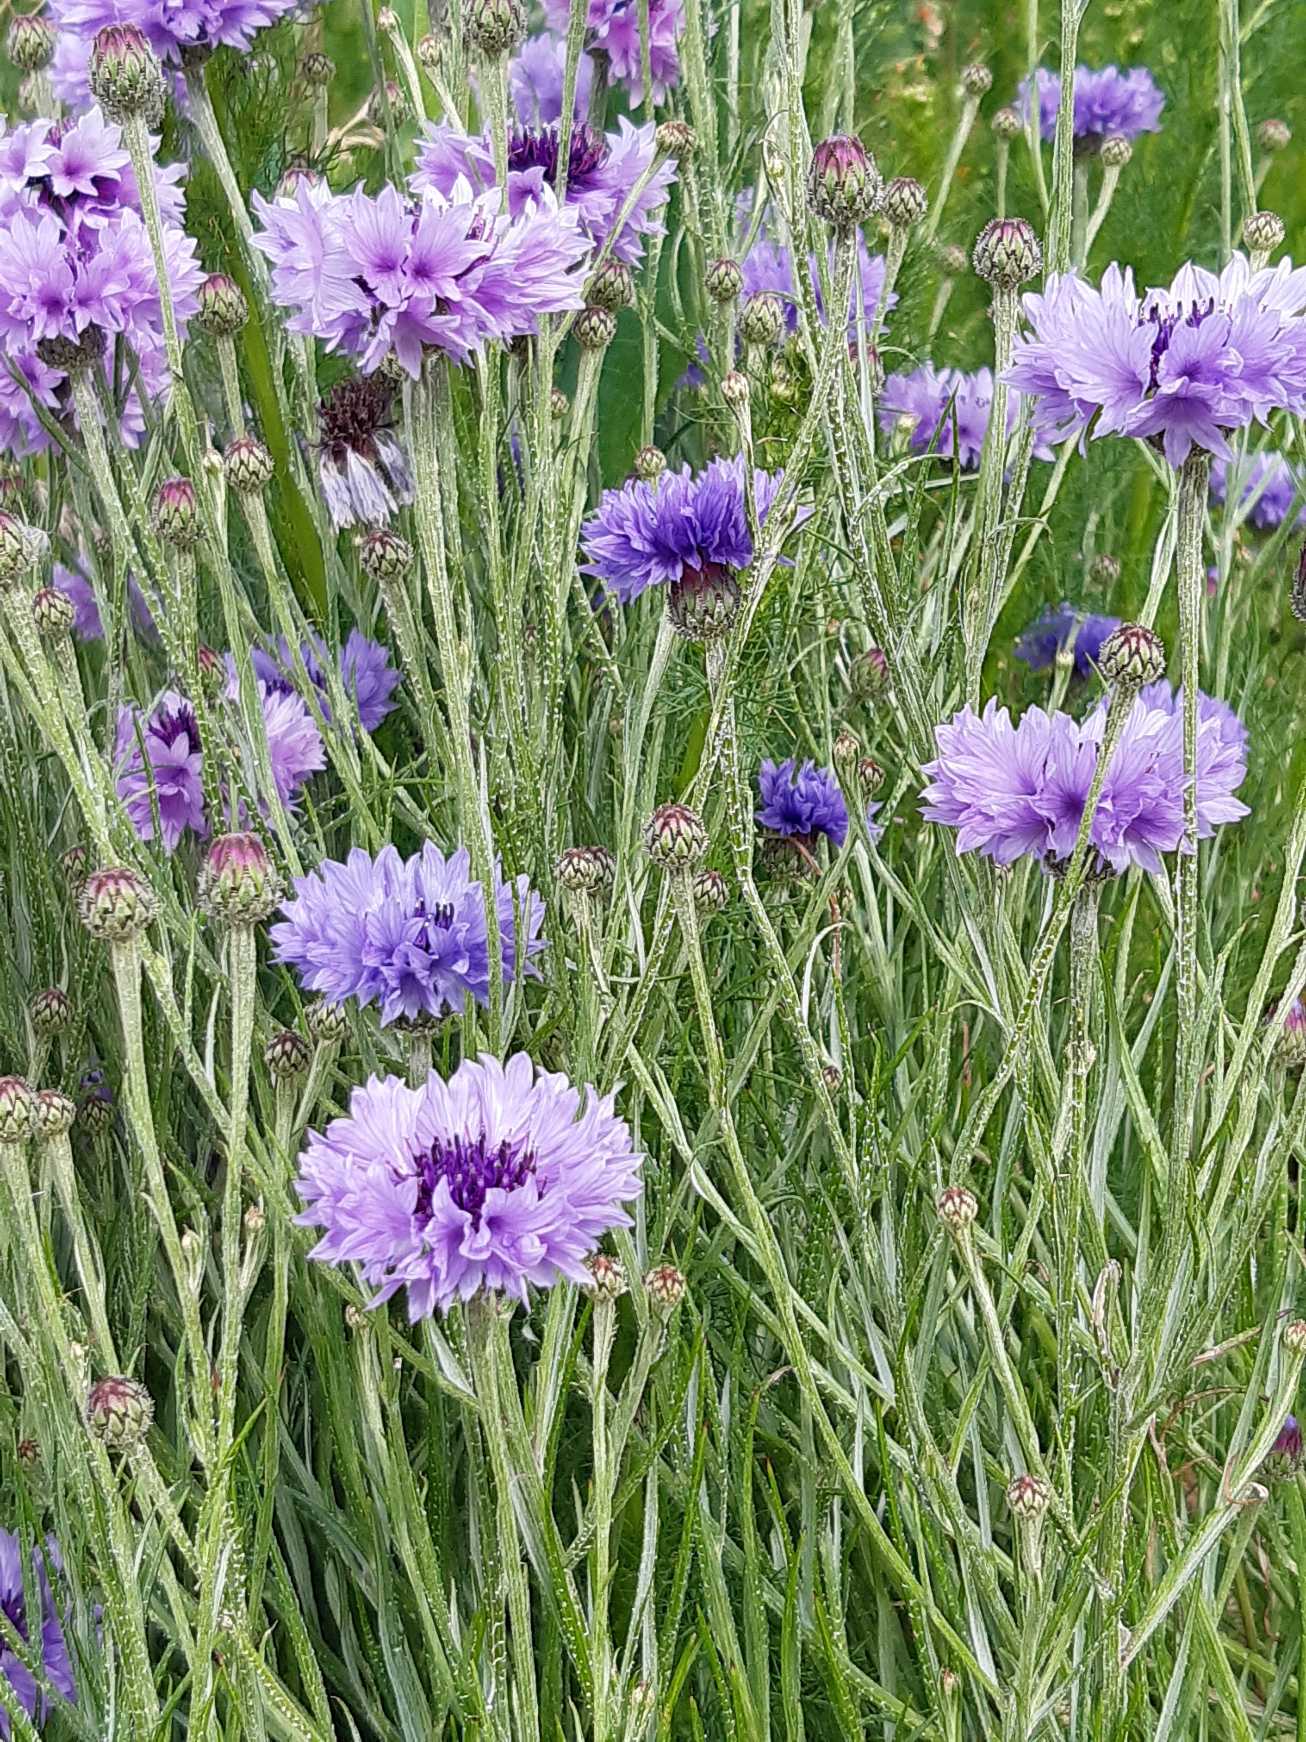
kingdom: Plantae
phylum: Tracheophyta
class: Magnoliopsida
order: Asterales
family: Asteraceae
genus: Centaurea
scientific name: Centaurea cyanus
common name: Kornblomst
